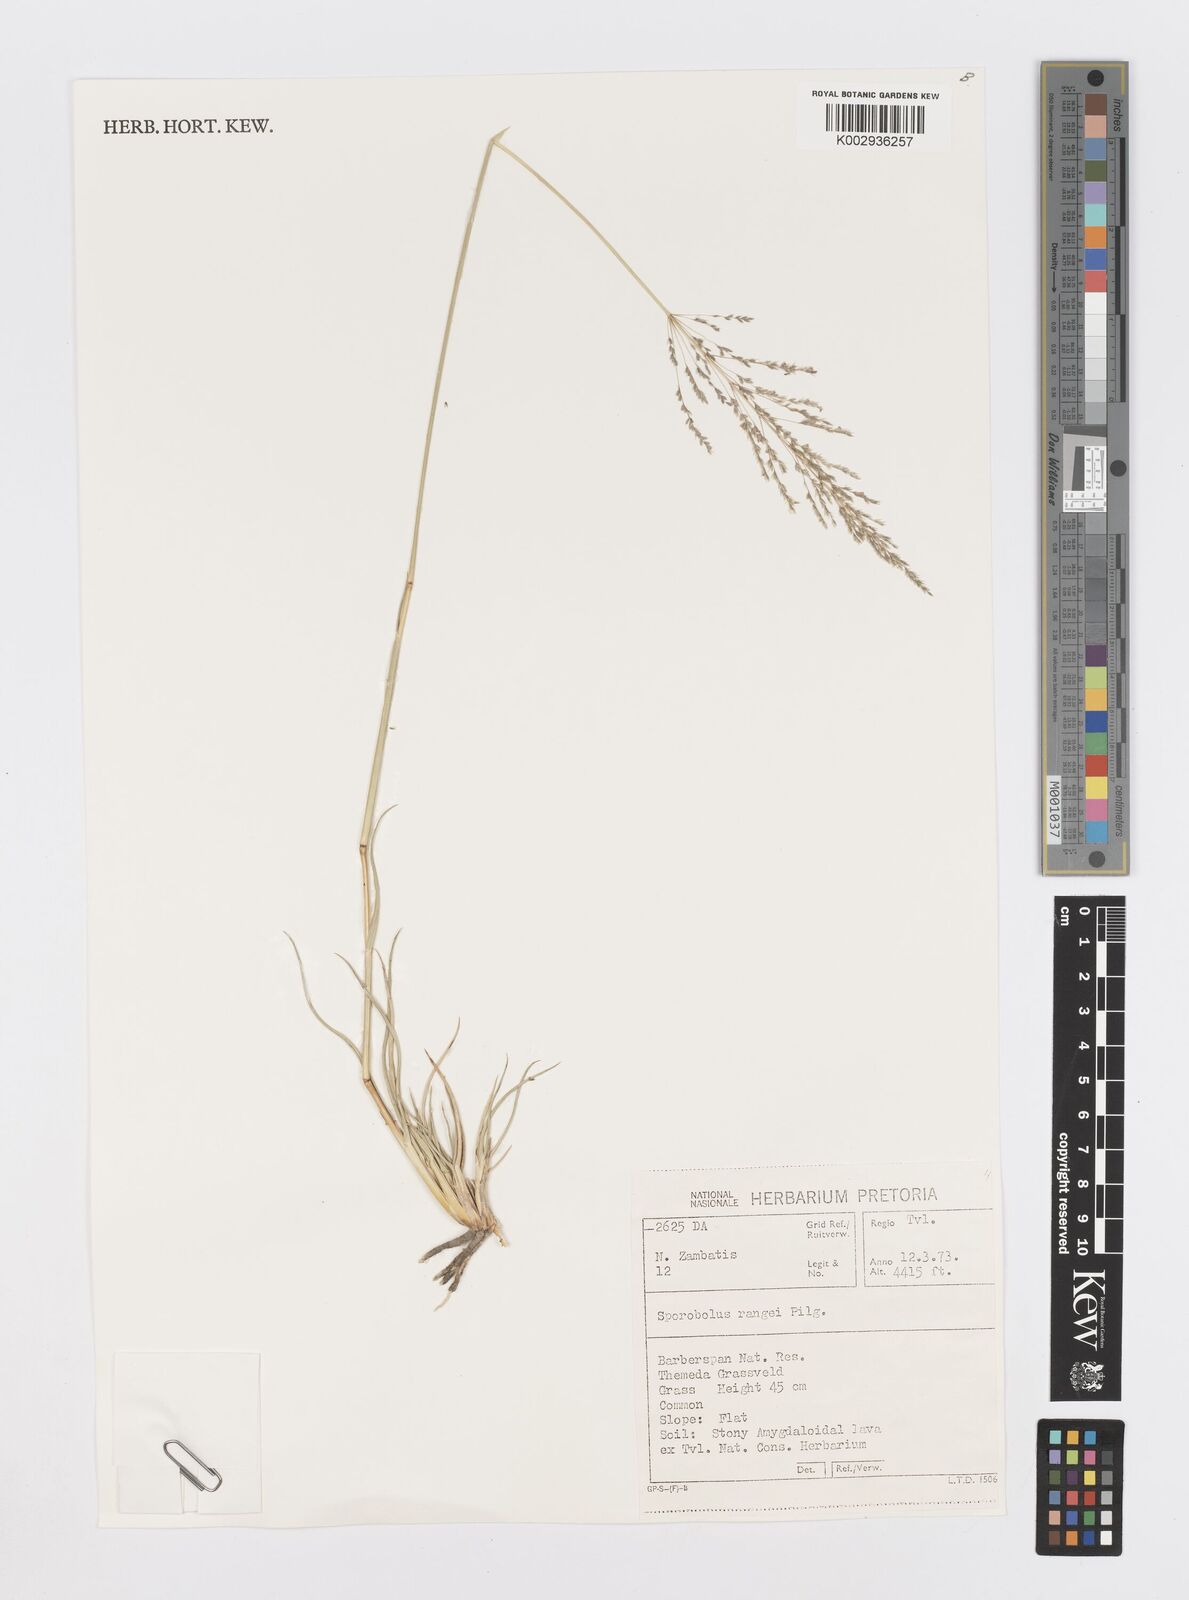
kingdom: Plantae
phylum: Tracheophyta
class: Liliopsida
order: Poales
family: Poaceae
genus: Sporobolus
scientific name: Sporobolus ioclados
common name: Pan dropseed
